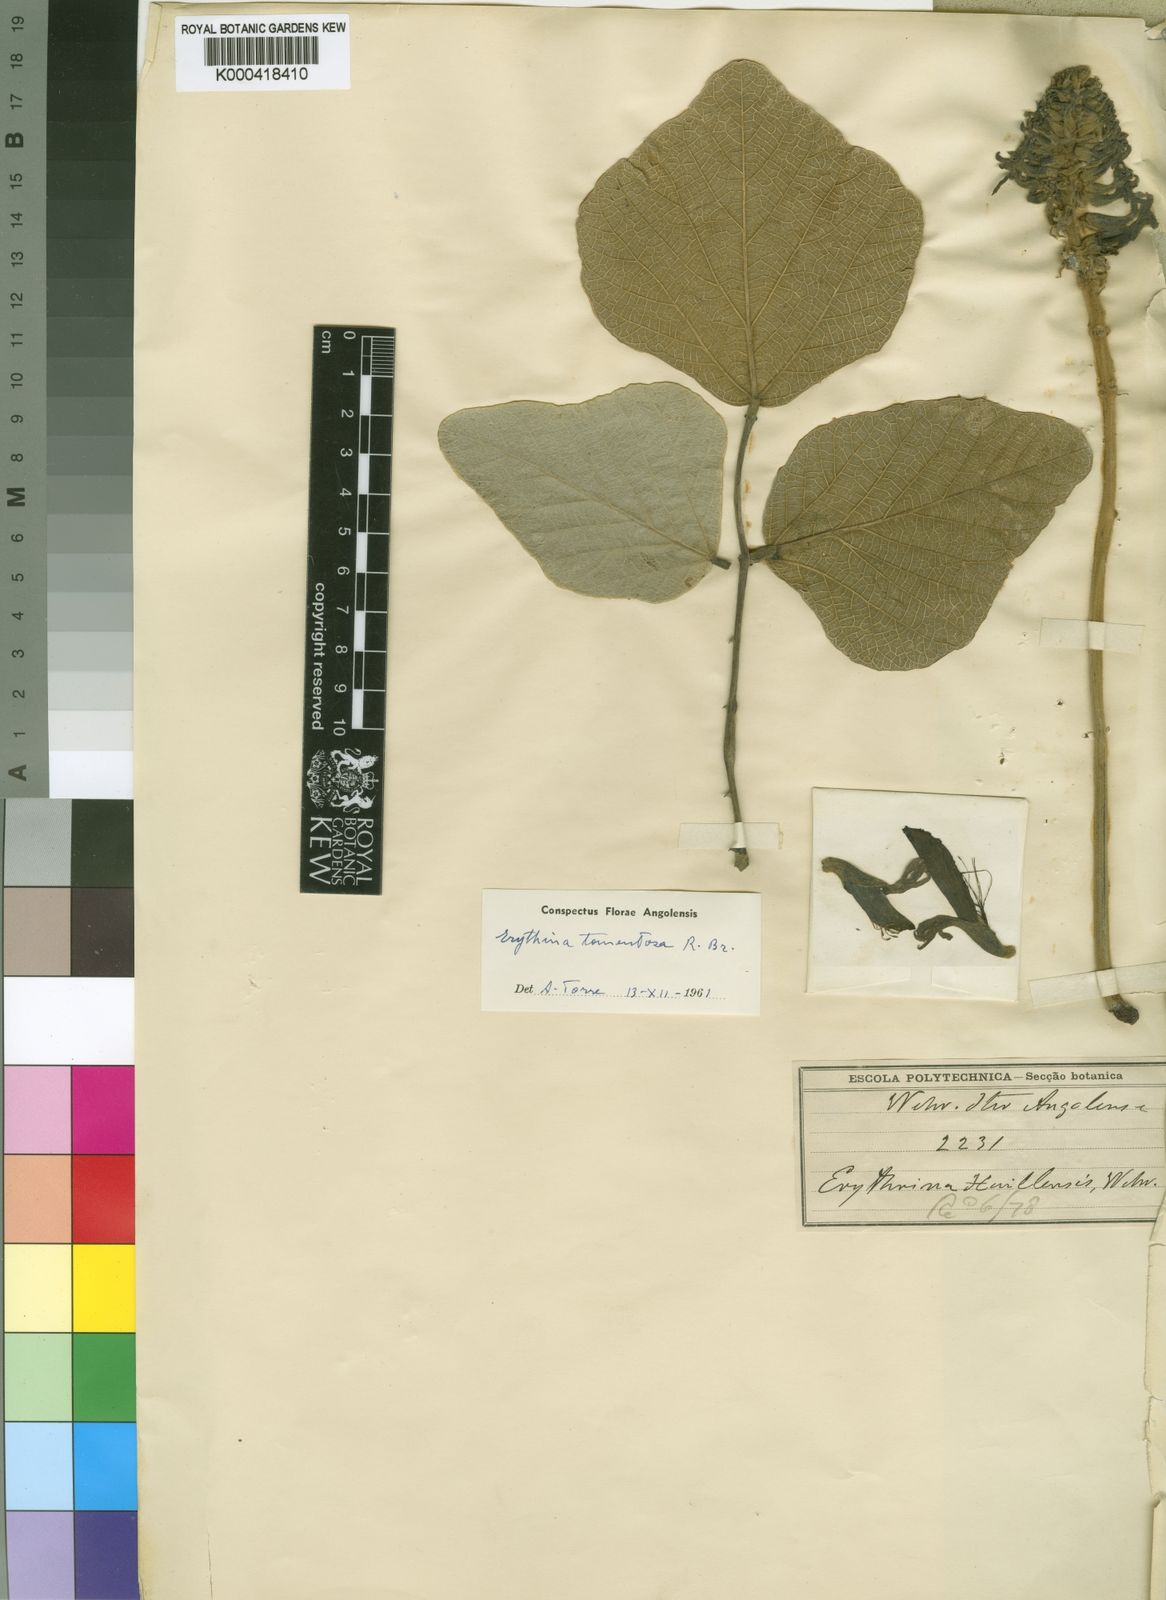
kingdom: Plantae
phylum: Tracheophyta
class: Magnoliopsida
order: Fabales
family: Fabaceae
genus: Erythrina
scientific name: Erythrina
